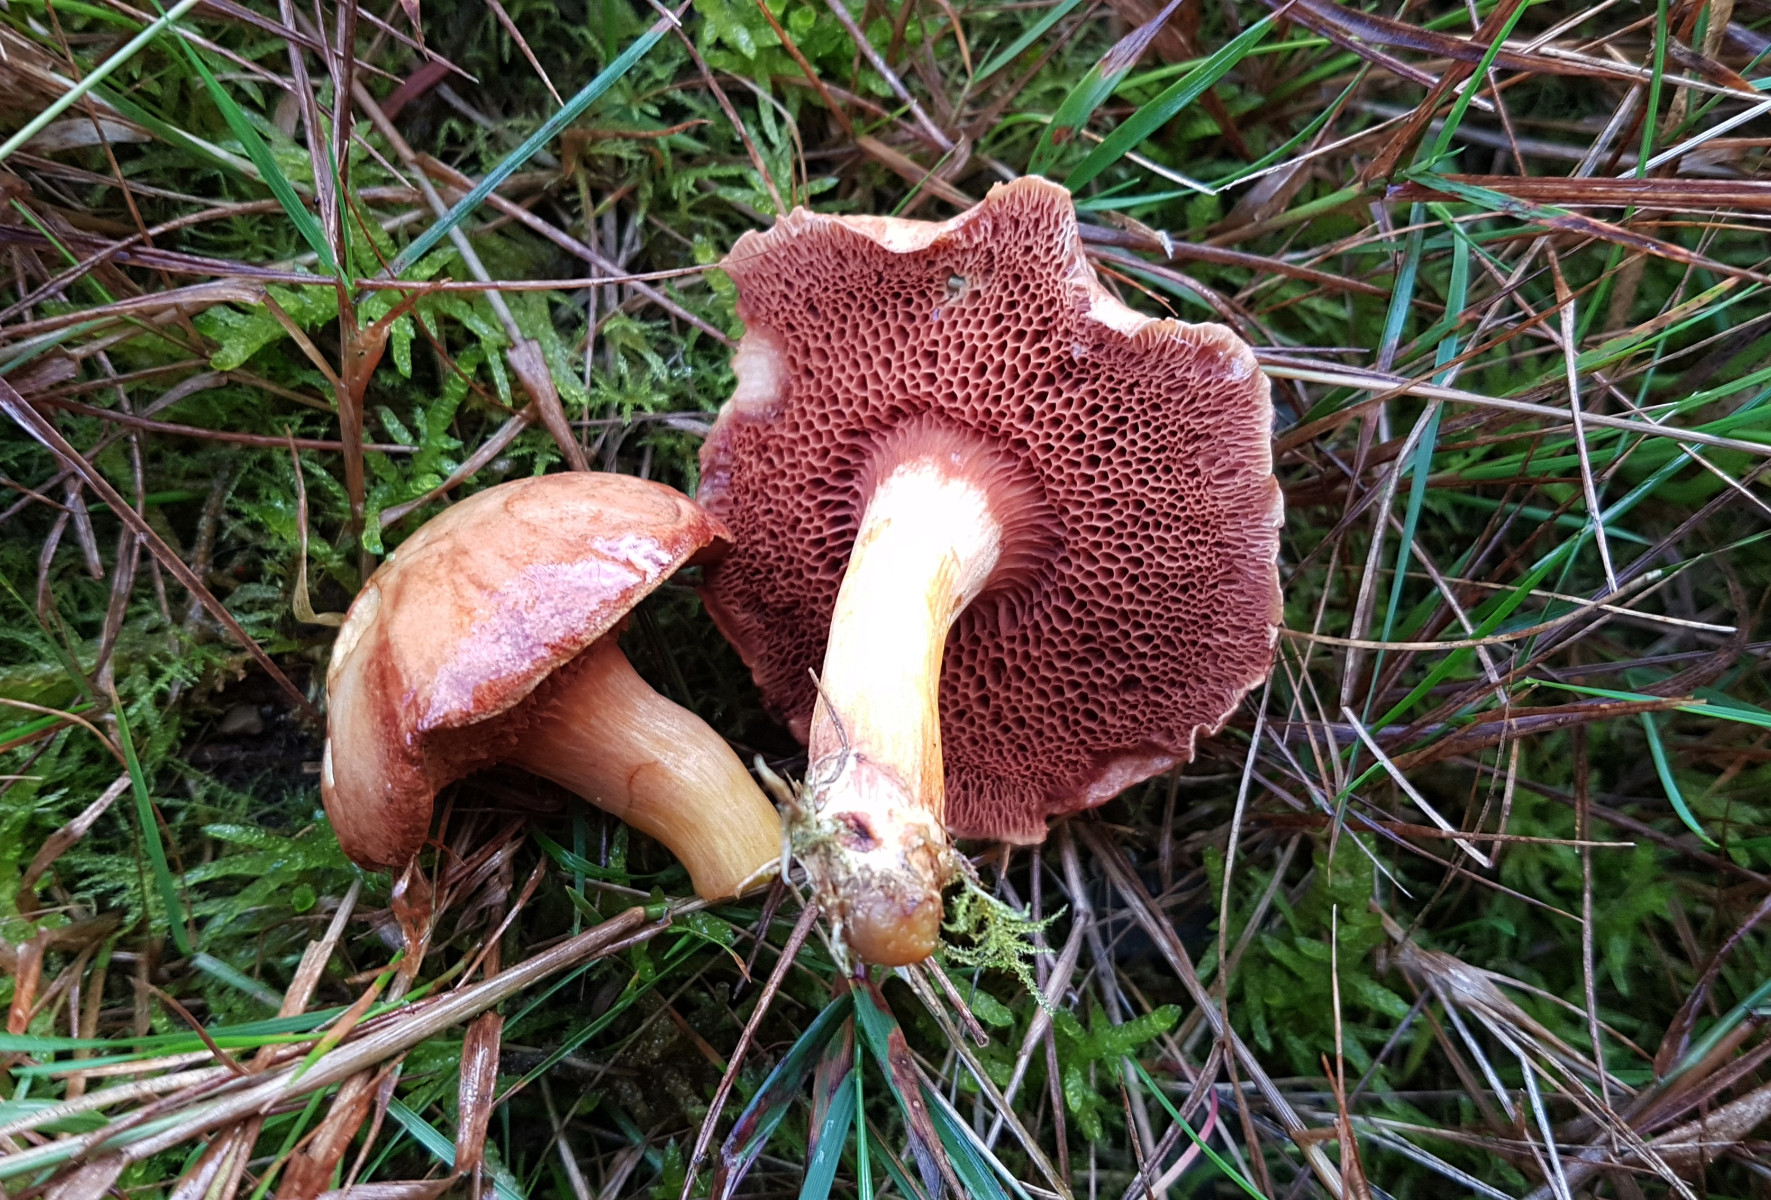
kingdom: Fungi
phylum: Basidiomycota
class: Agaricomycetes
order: Boletales
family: Boletaceae
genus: Chalciporus
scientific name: Chalciporus piperatus
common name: peberrørhat
